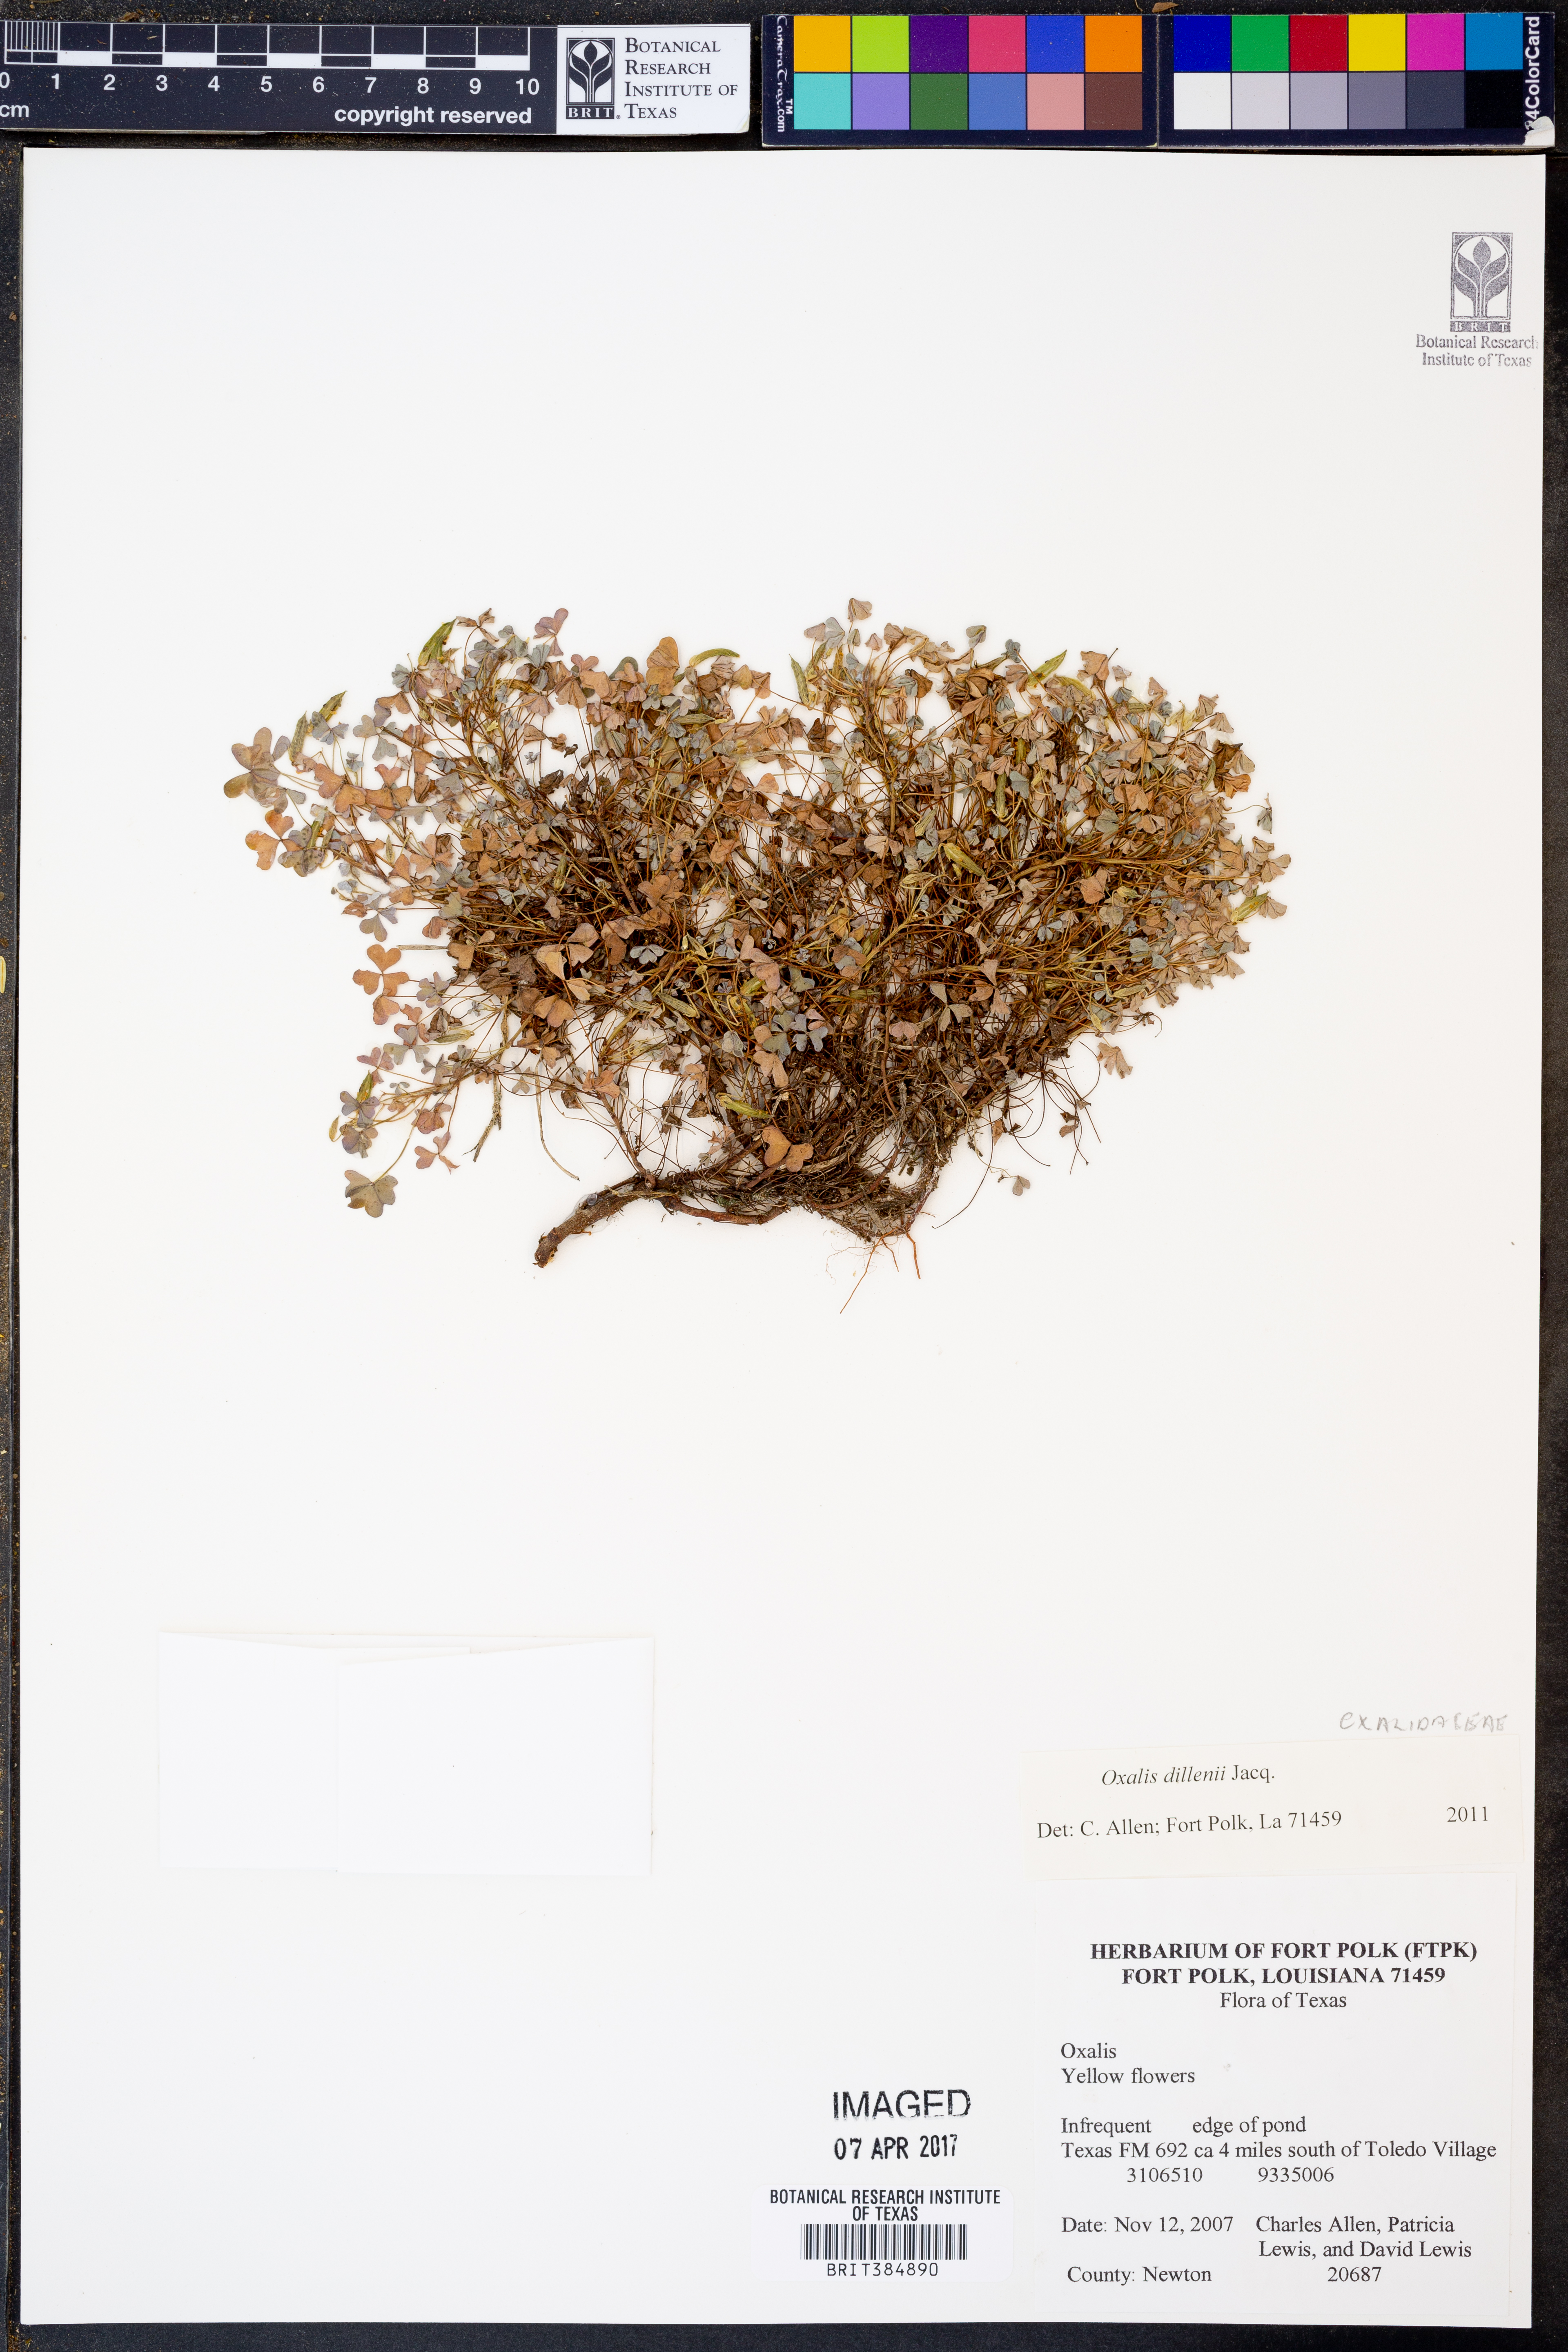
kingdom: Plantae
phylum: Tracheophyta
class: Magnoliopsida
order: Oxalidales
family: Oxalidaceae
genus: Oxalis
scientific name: Oxalis dillenii
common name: Sussex yellow-sorrel
